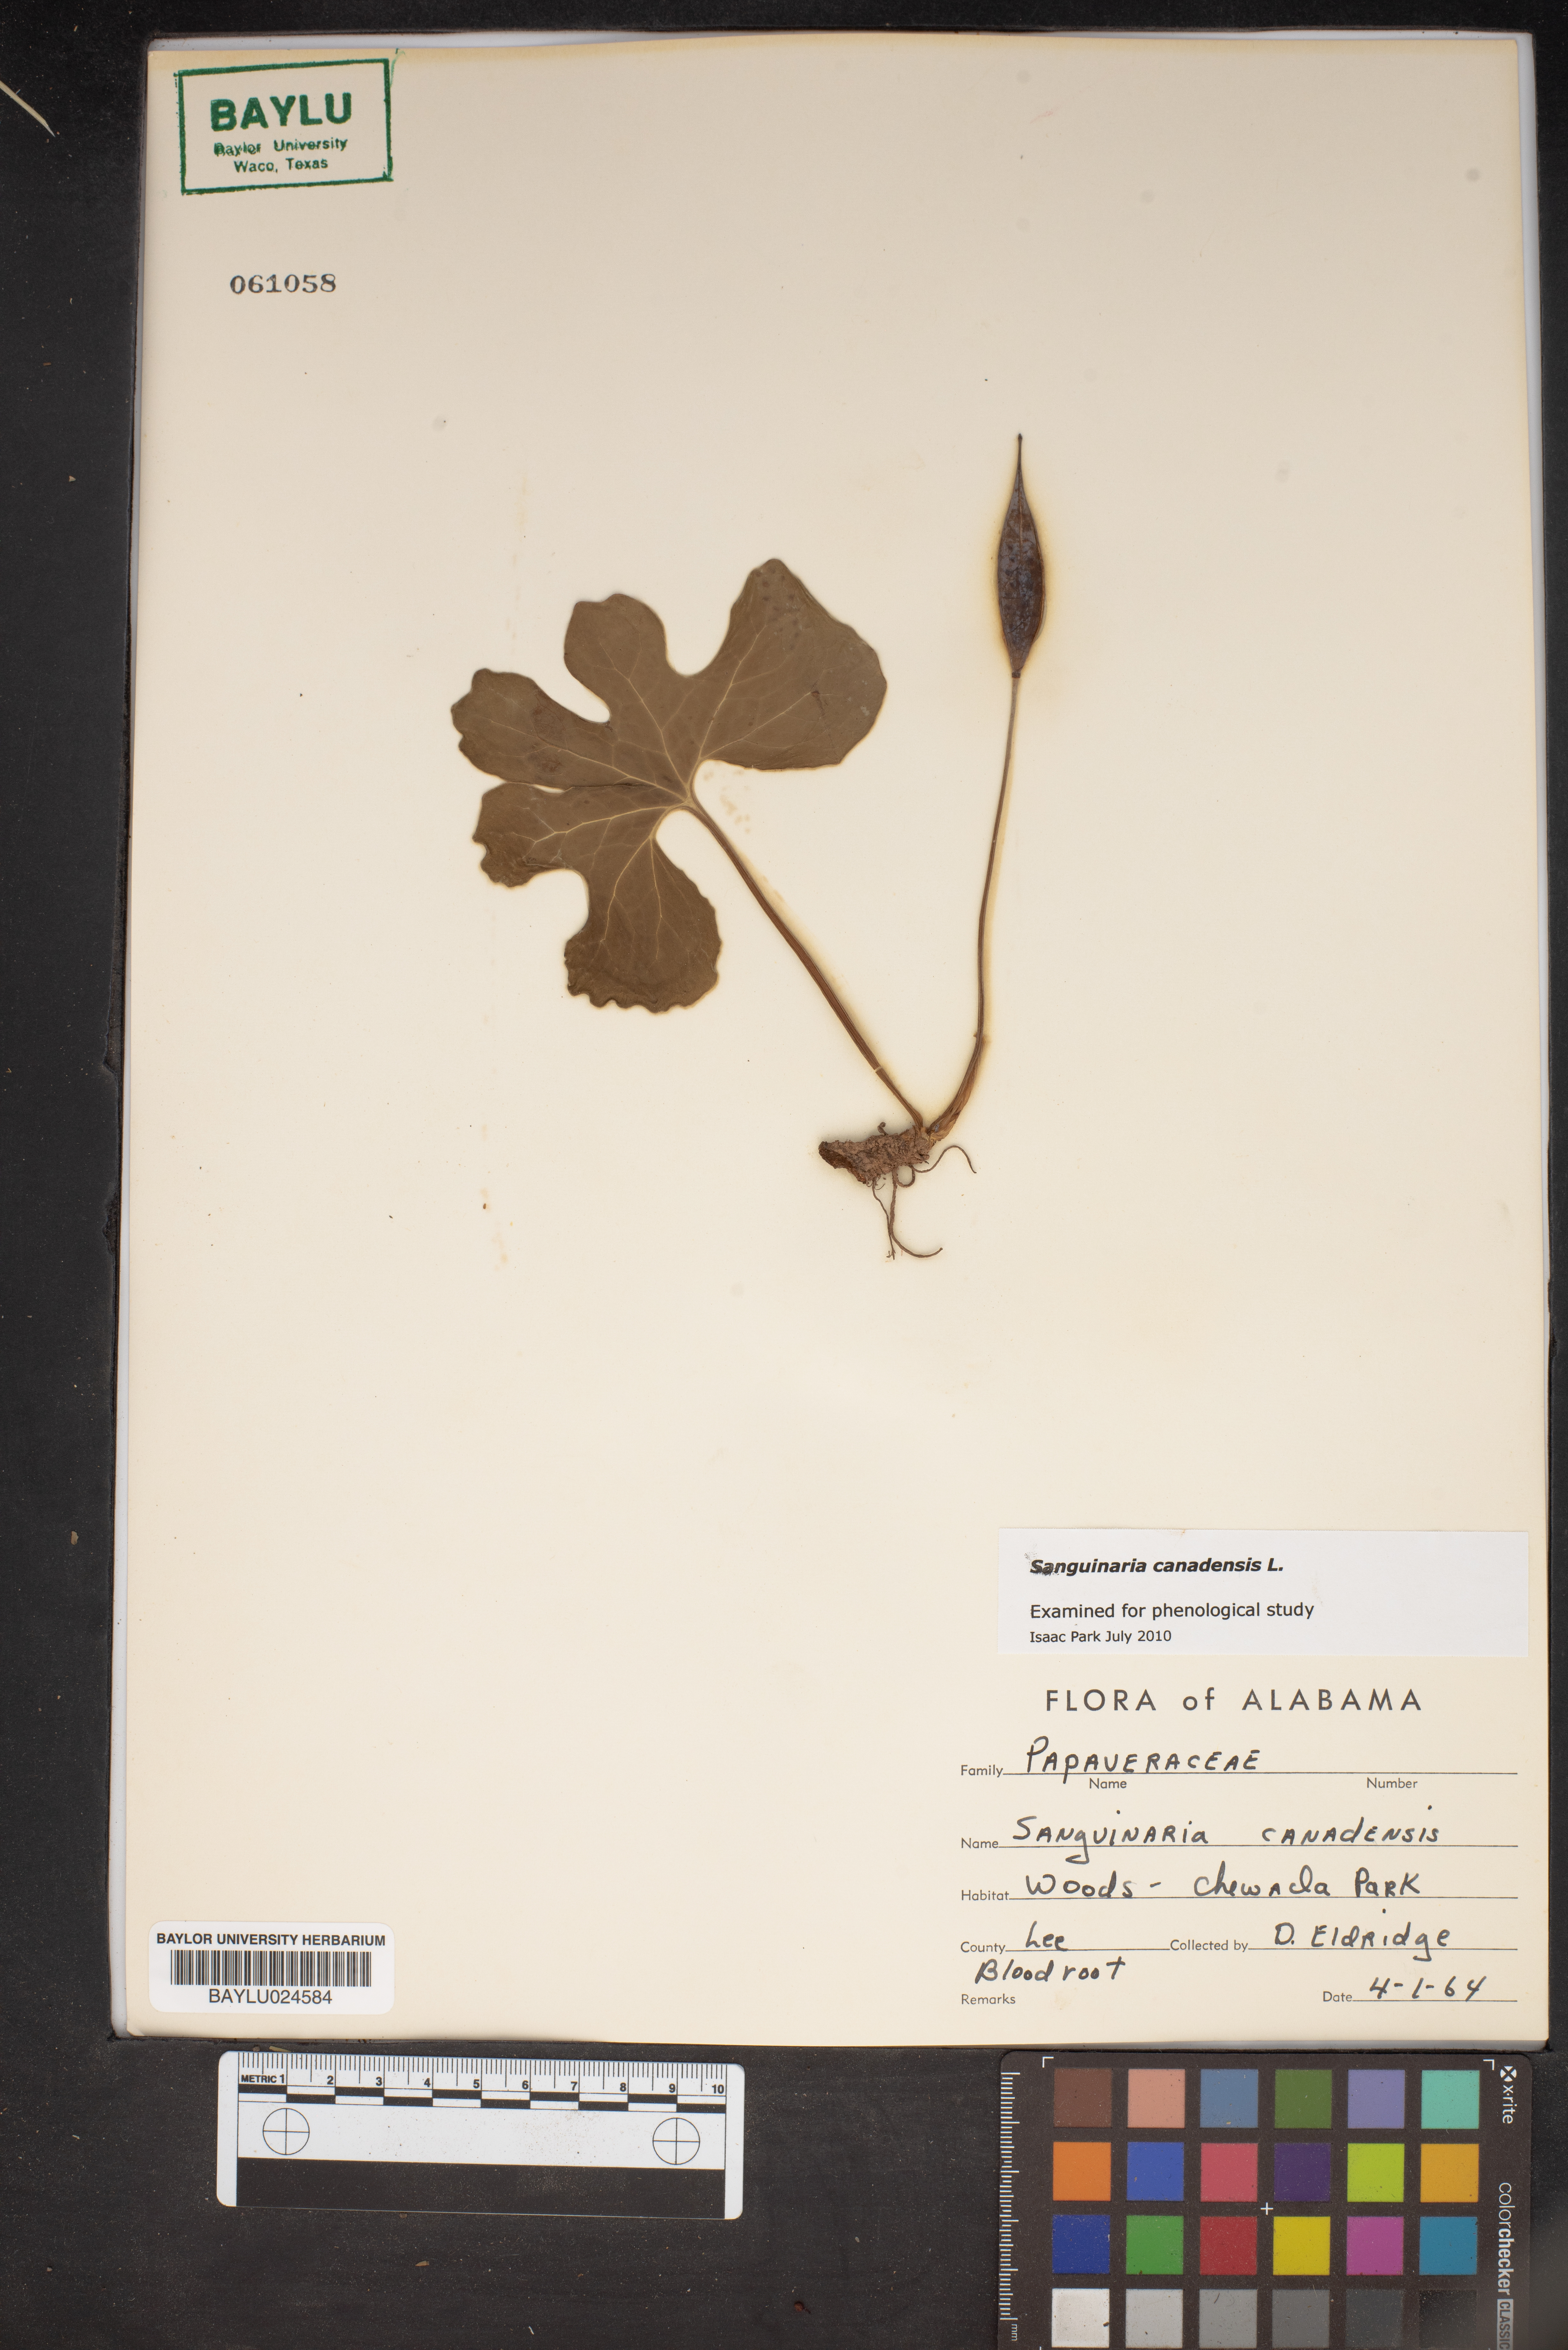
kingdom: Plantae
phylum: Tracheophyta
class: Magnoliopsida
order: Ranunculales
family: Papaveraceae
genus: Sanguinaria
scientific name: Sanguinaria canadensis
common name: Bloodroot
